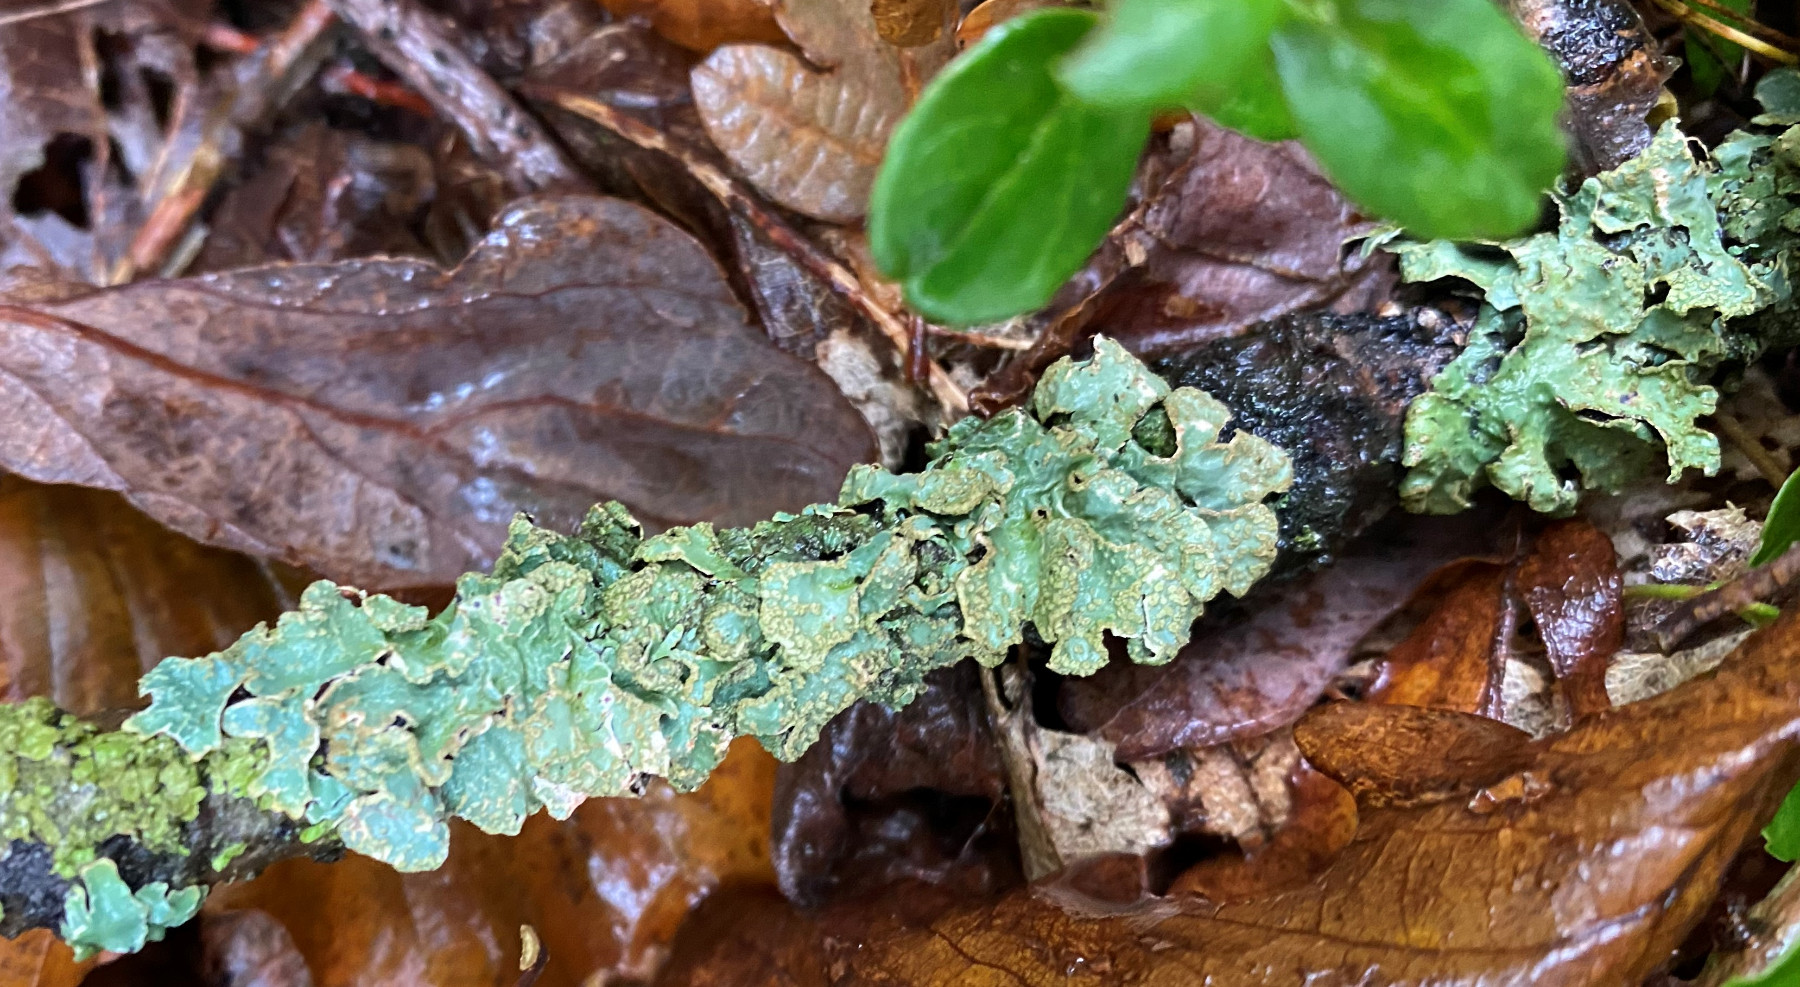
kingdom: Fungi
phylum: Ascomycota
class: Lecanoromycetes
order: Lecanorales
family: Parmeliaceae
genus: Parmelia
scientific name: Parmelia sulcata
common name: rynket skållav
